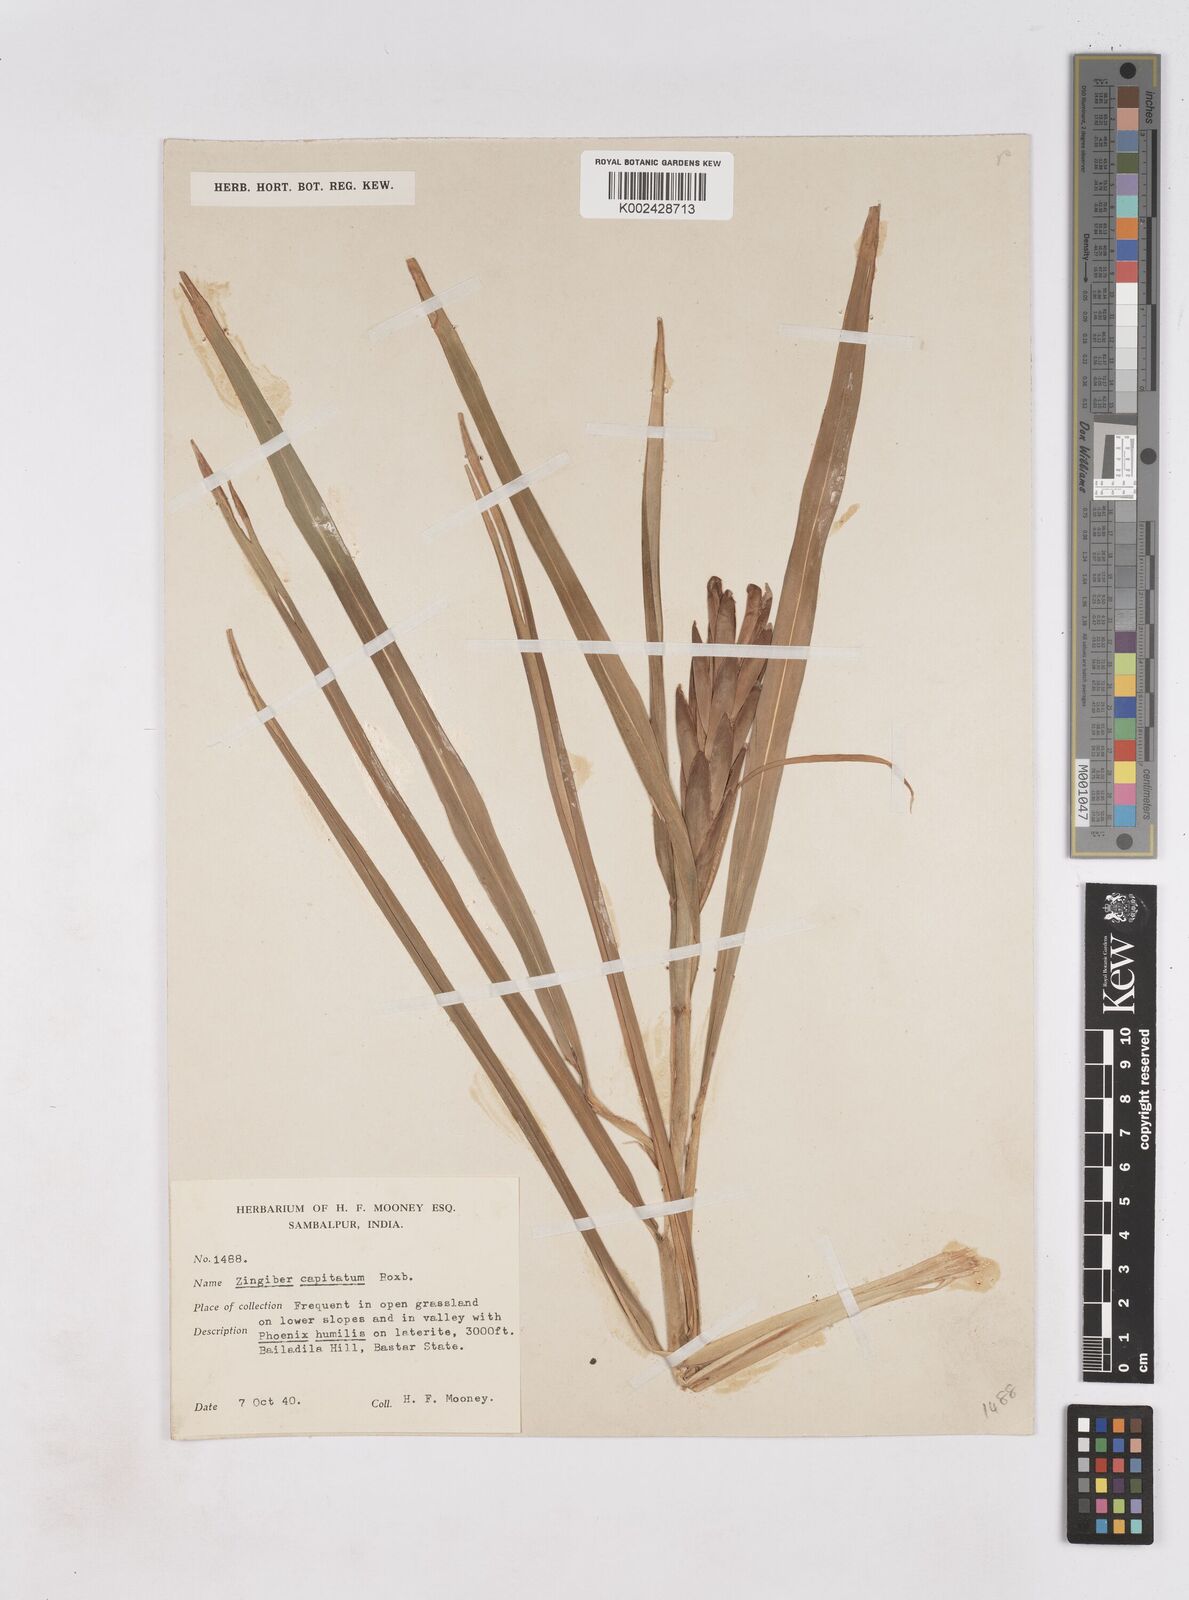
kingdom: Plantae
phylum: Tracheophyta
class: Liliopsida
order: Zingiberales
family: Zingiberaceae
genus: Zingiber
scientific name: Zingiber capitatum
